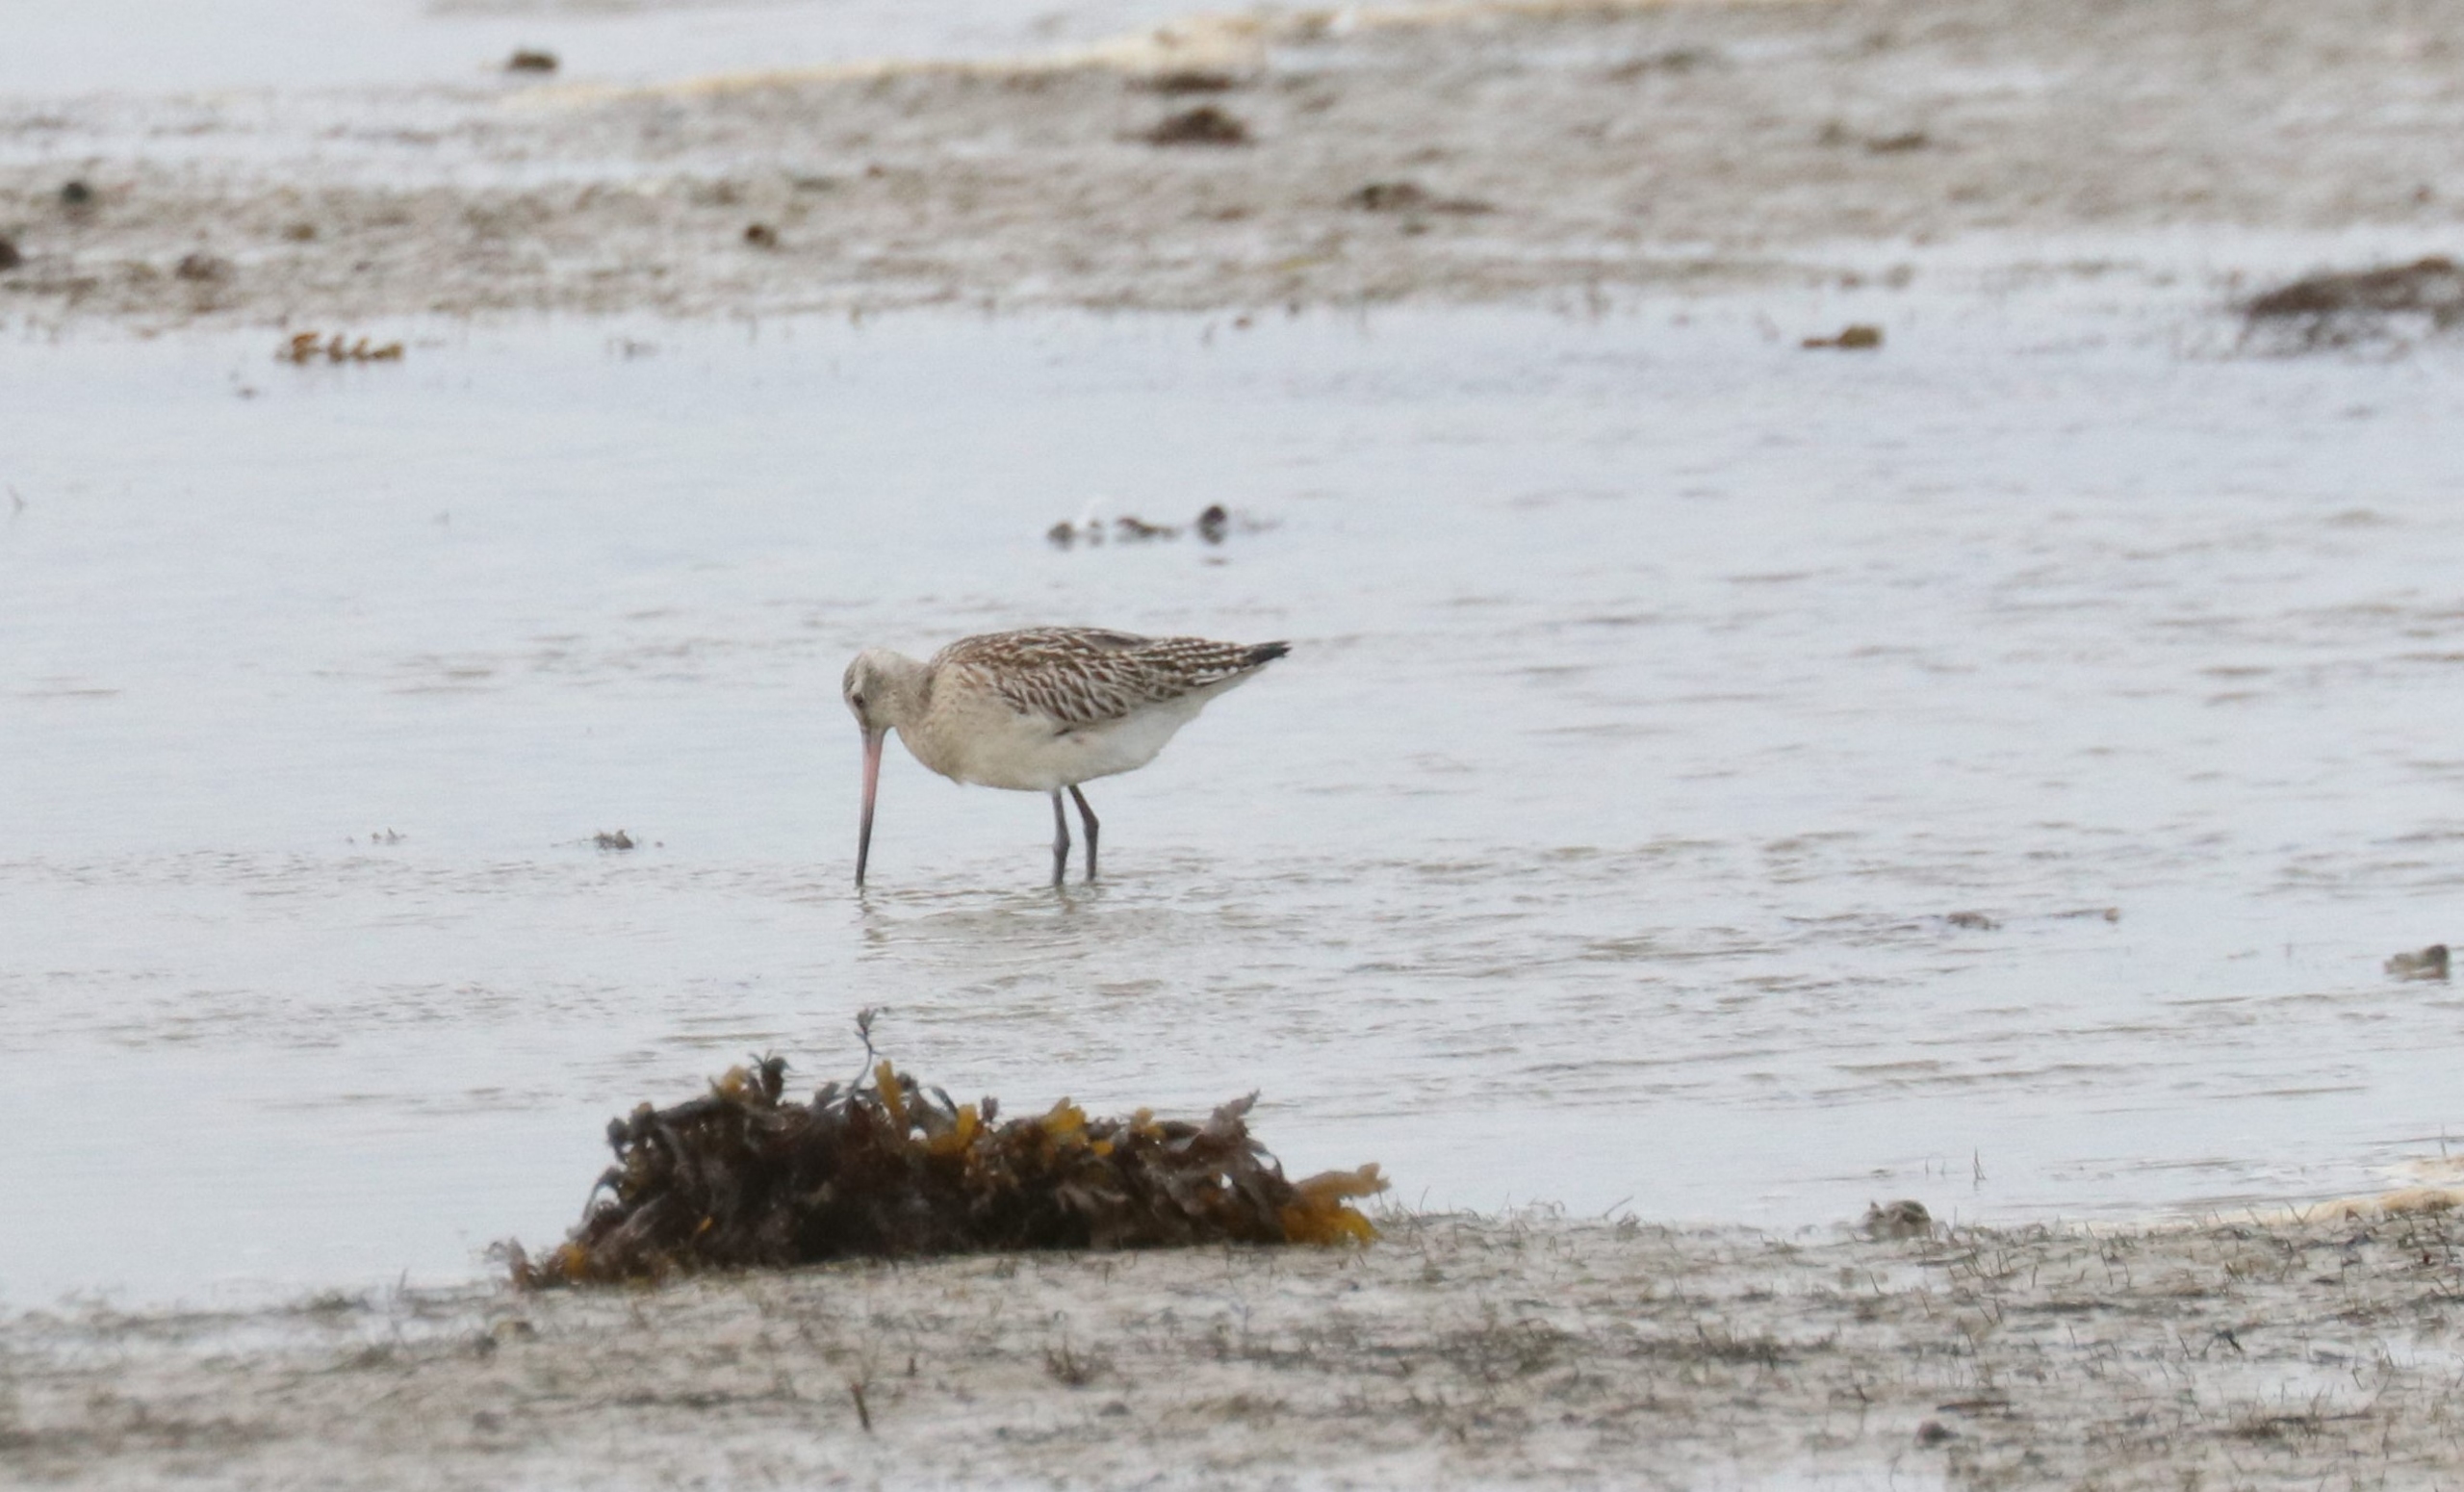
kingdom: Animalia
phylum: Chordata
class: Aves
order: Charadriiformes
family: Scolopacidae
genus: Limosa
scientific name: Limosa lapponica
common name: Lille kobbersneppe
